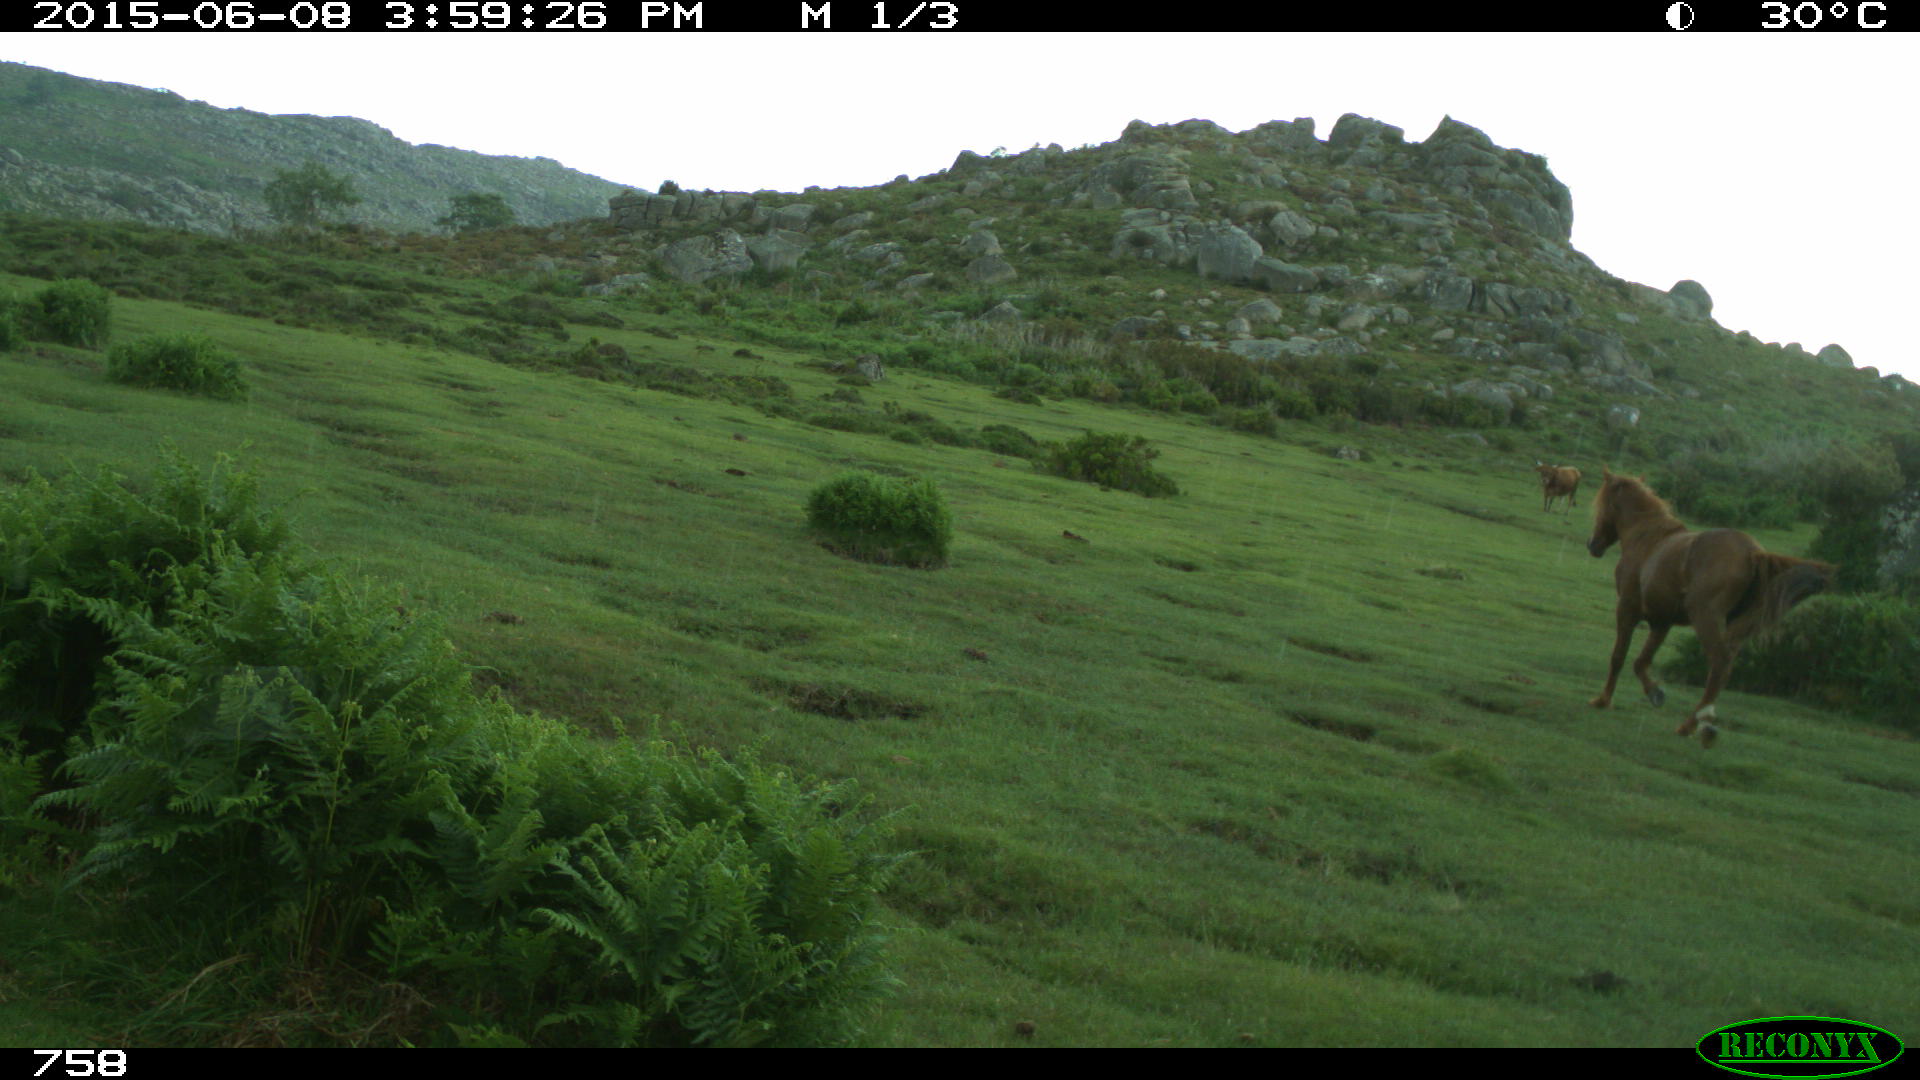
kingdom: Animalia
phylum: Chordata
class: Mammalia
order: Perissodactyla
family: Equidae
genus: Equus
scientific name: Equus caballus
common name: Horse
